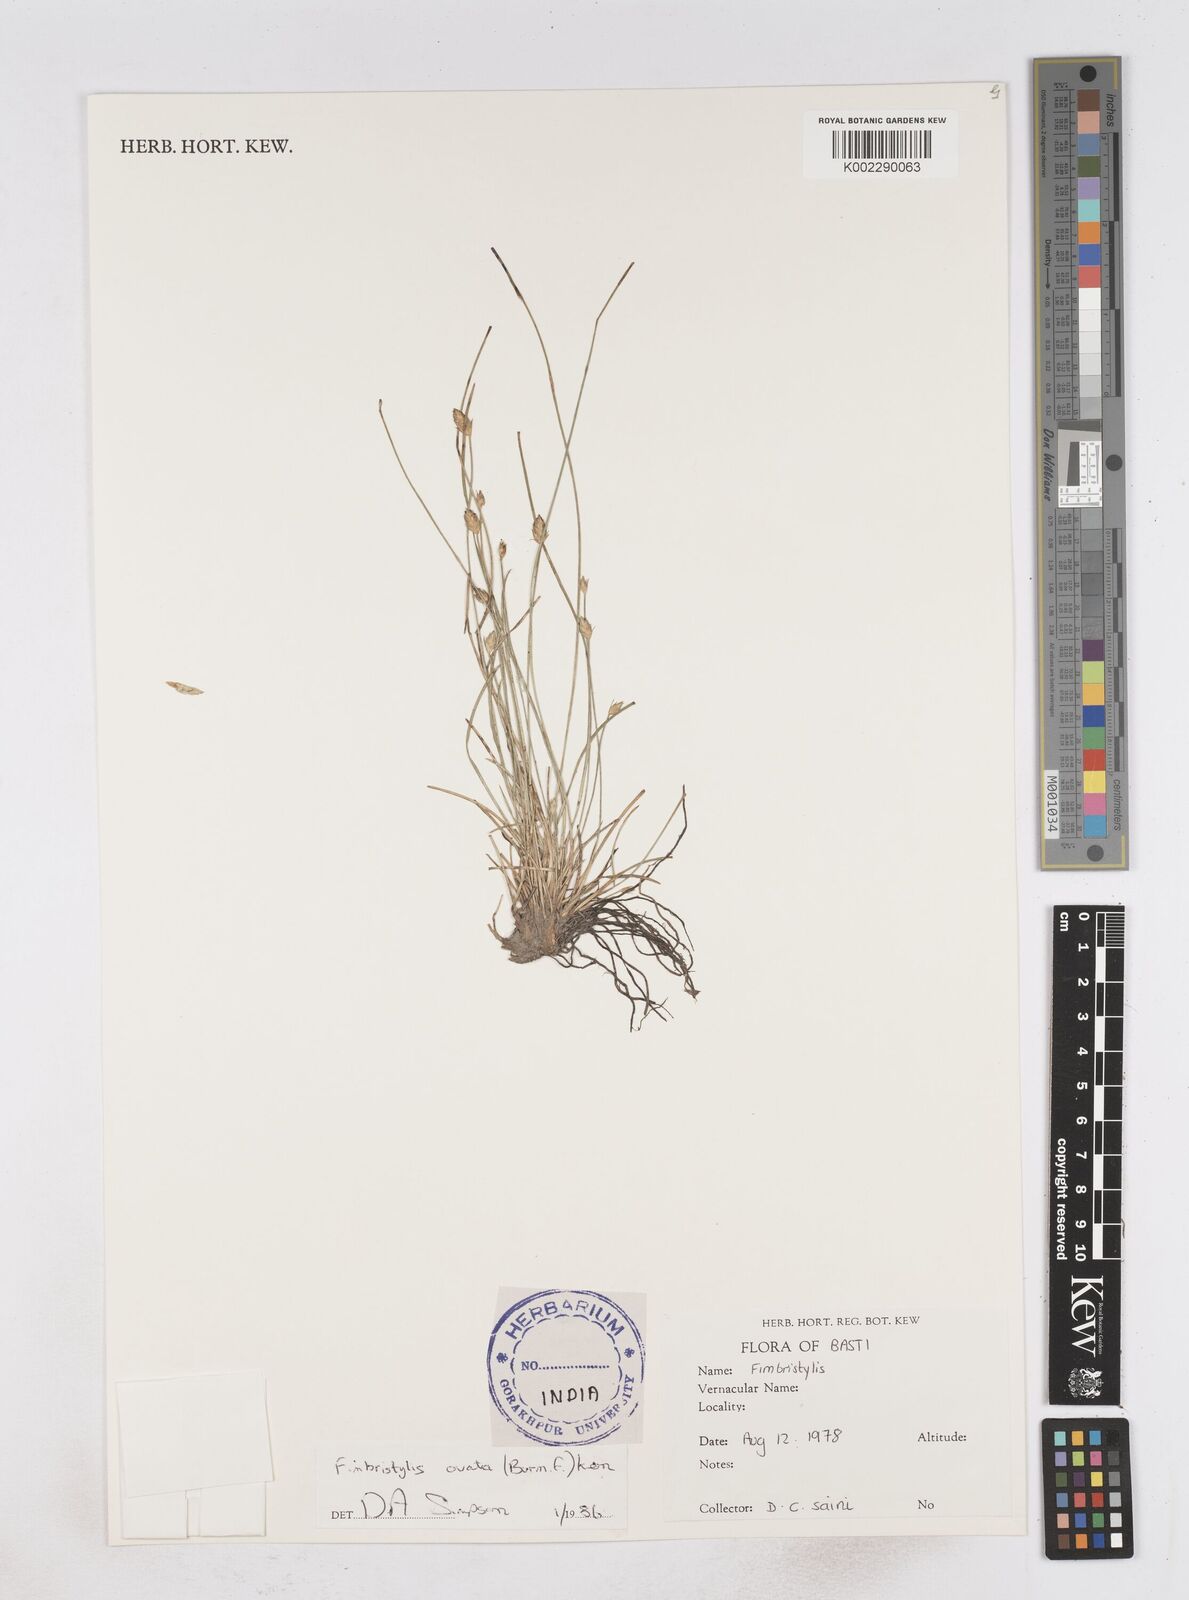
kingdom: Plantae
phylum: Tracheophyta
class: Liliopsida
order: Poales
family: Cyperaceae
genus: Abildgaardia
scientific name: Abildgaardia ovata
